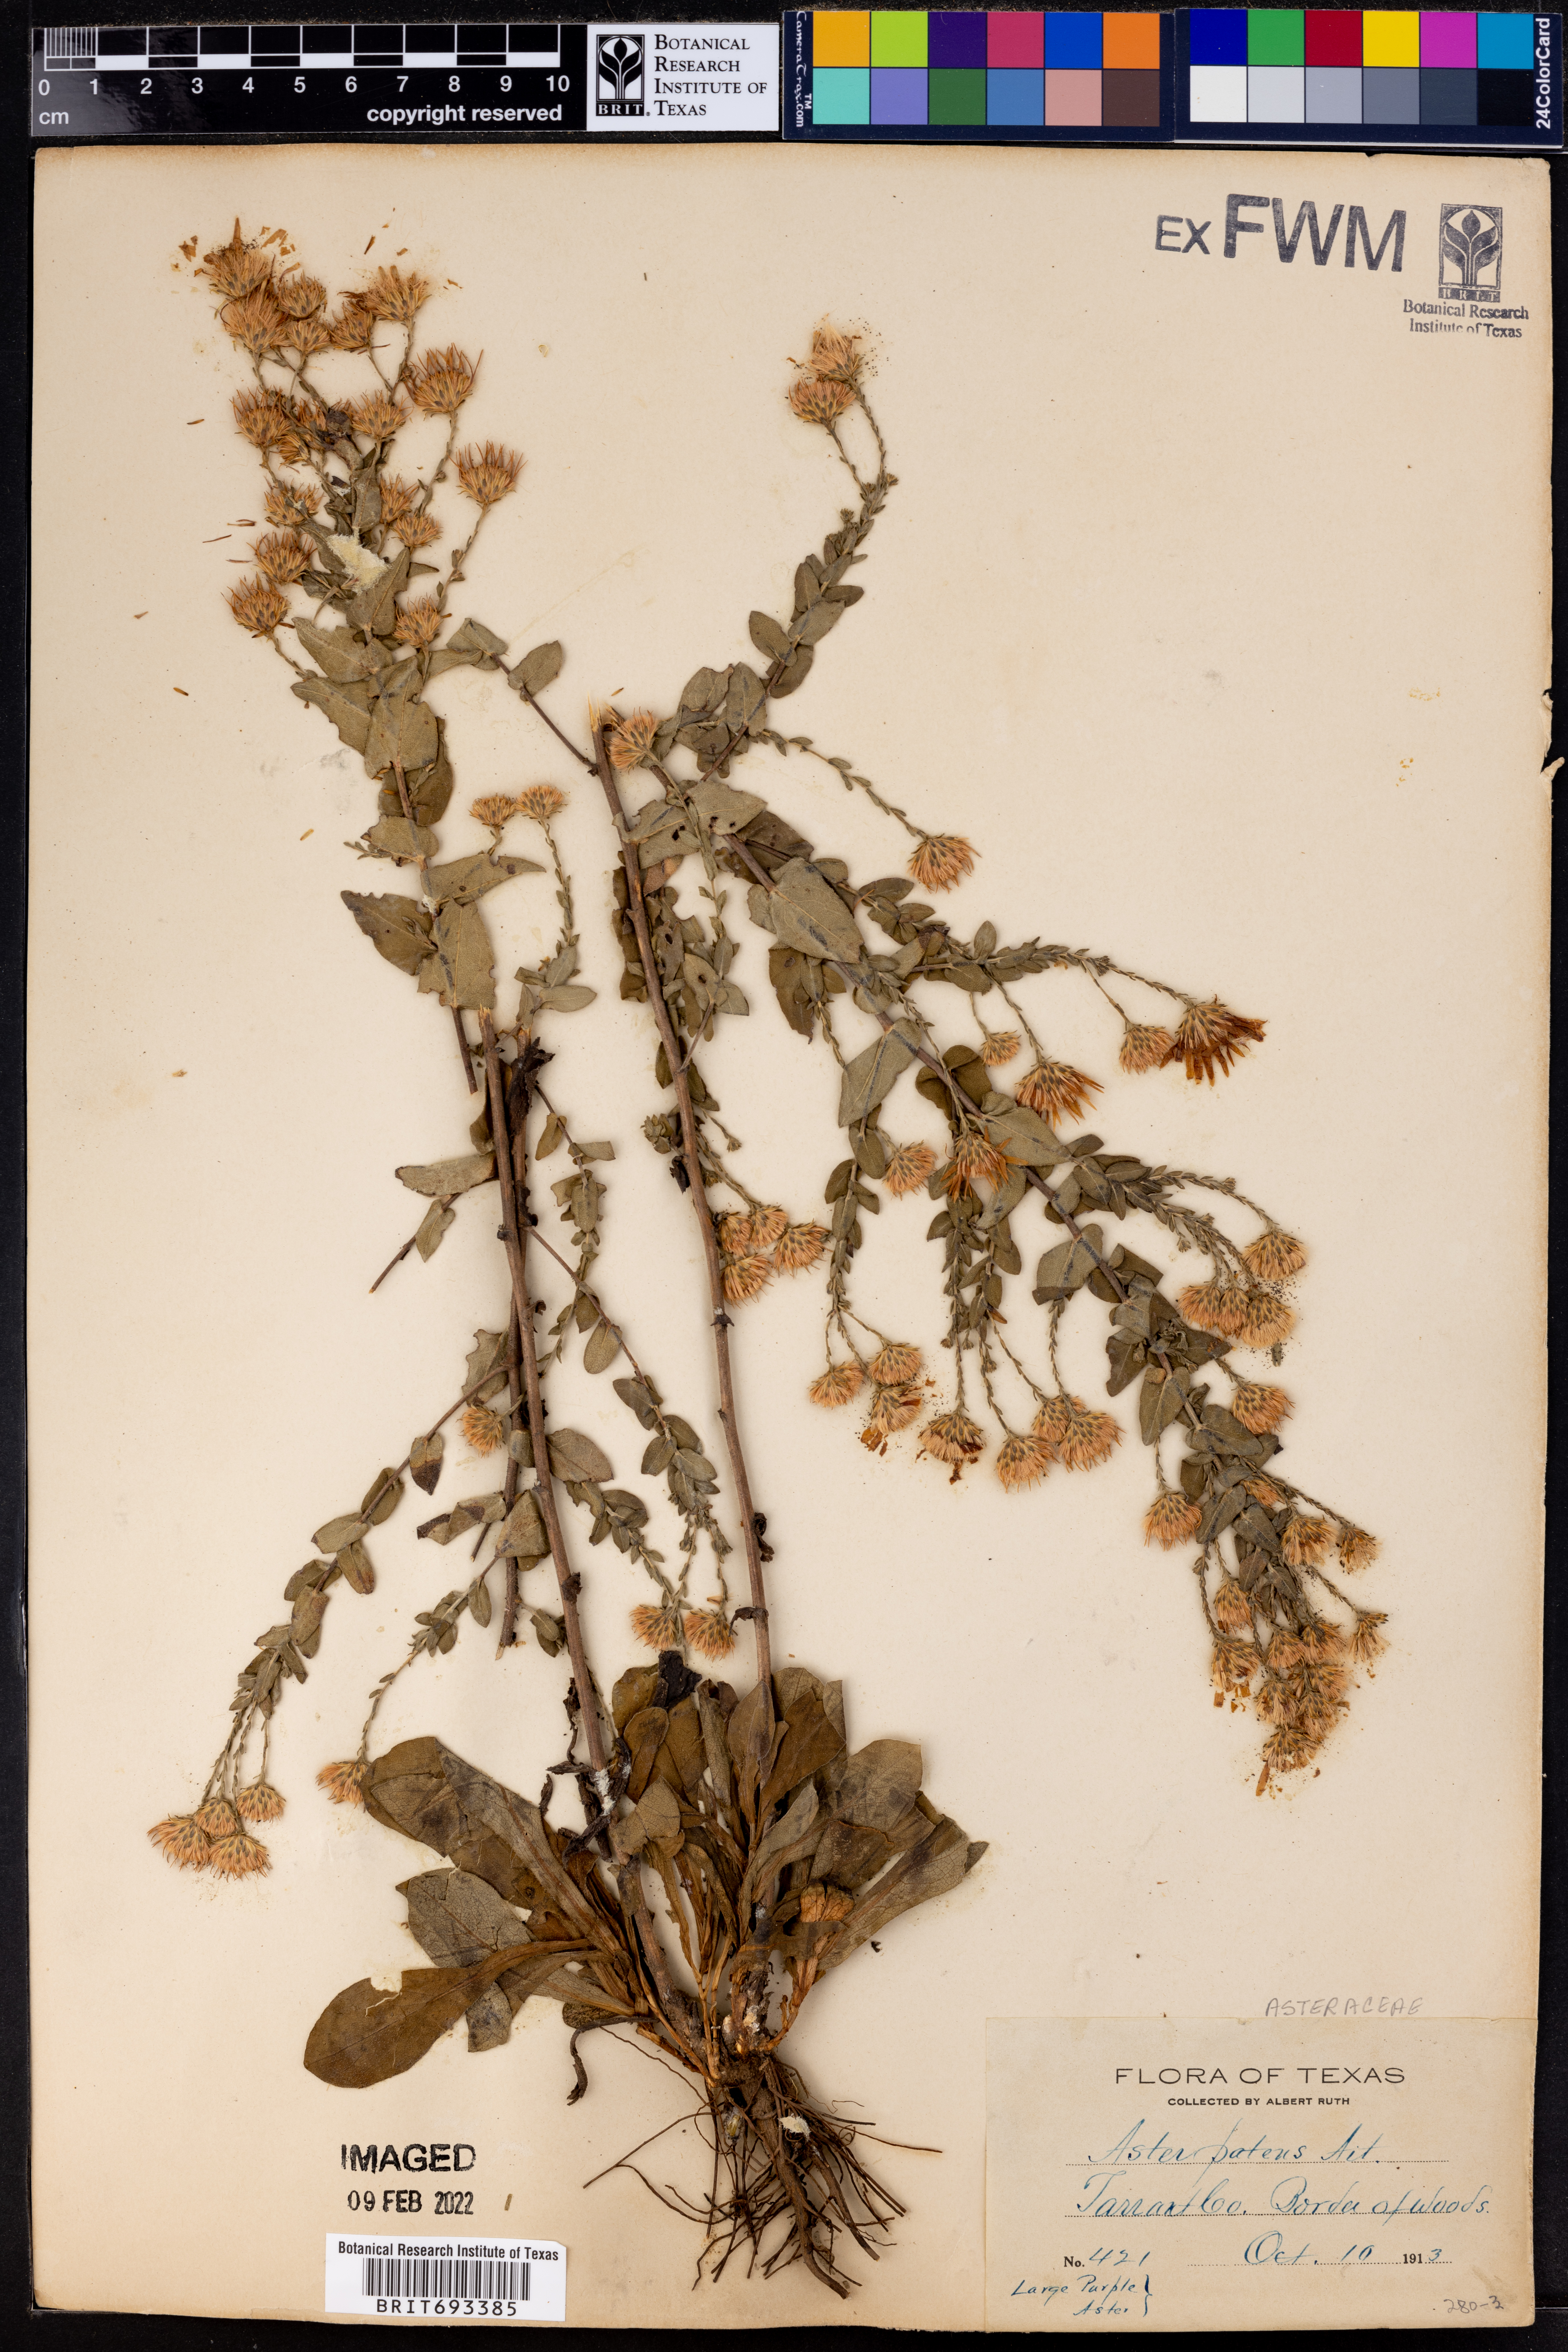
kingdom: Plantae
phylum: Tracheophyta
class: Magnoliopsida
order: Asterales
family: Asteraceae
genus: Symphyotrichum
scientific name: Symphyotrichum patens
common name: Late purple aster
